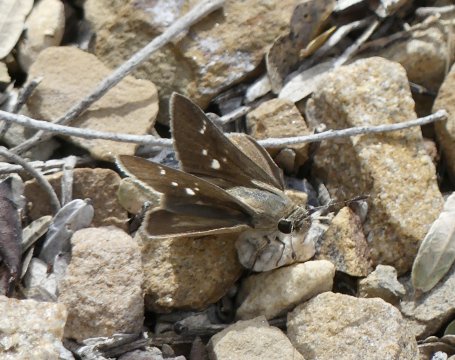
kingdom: Animalia
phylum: Arthropoda
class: Insecta
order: Lepidoptera
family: Hesperiidae
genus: Lerodea
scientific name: Lerodea eufala
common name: Eufala Skipper
